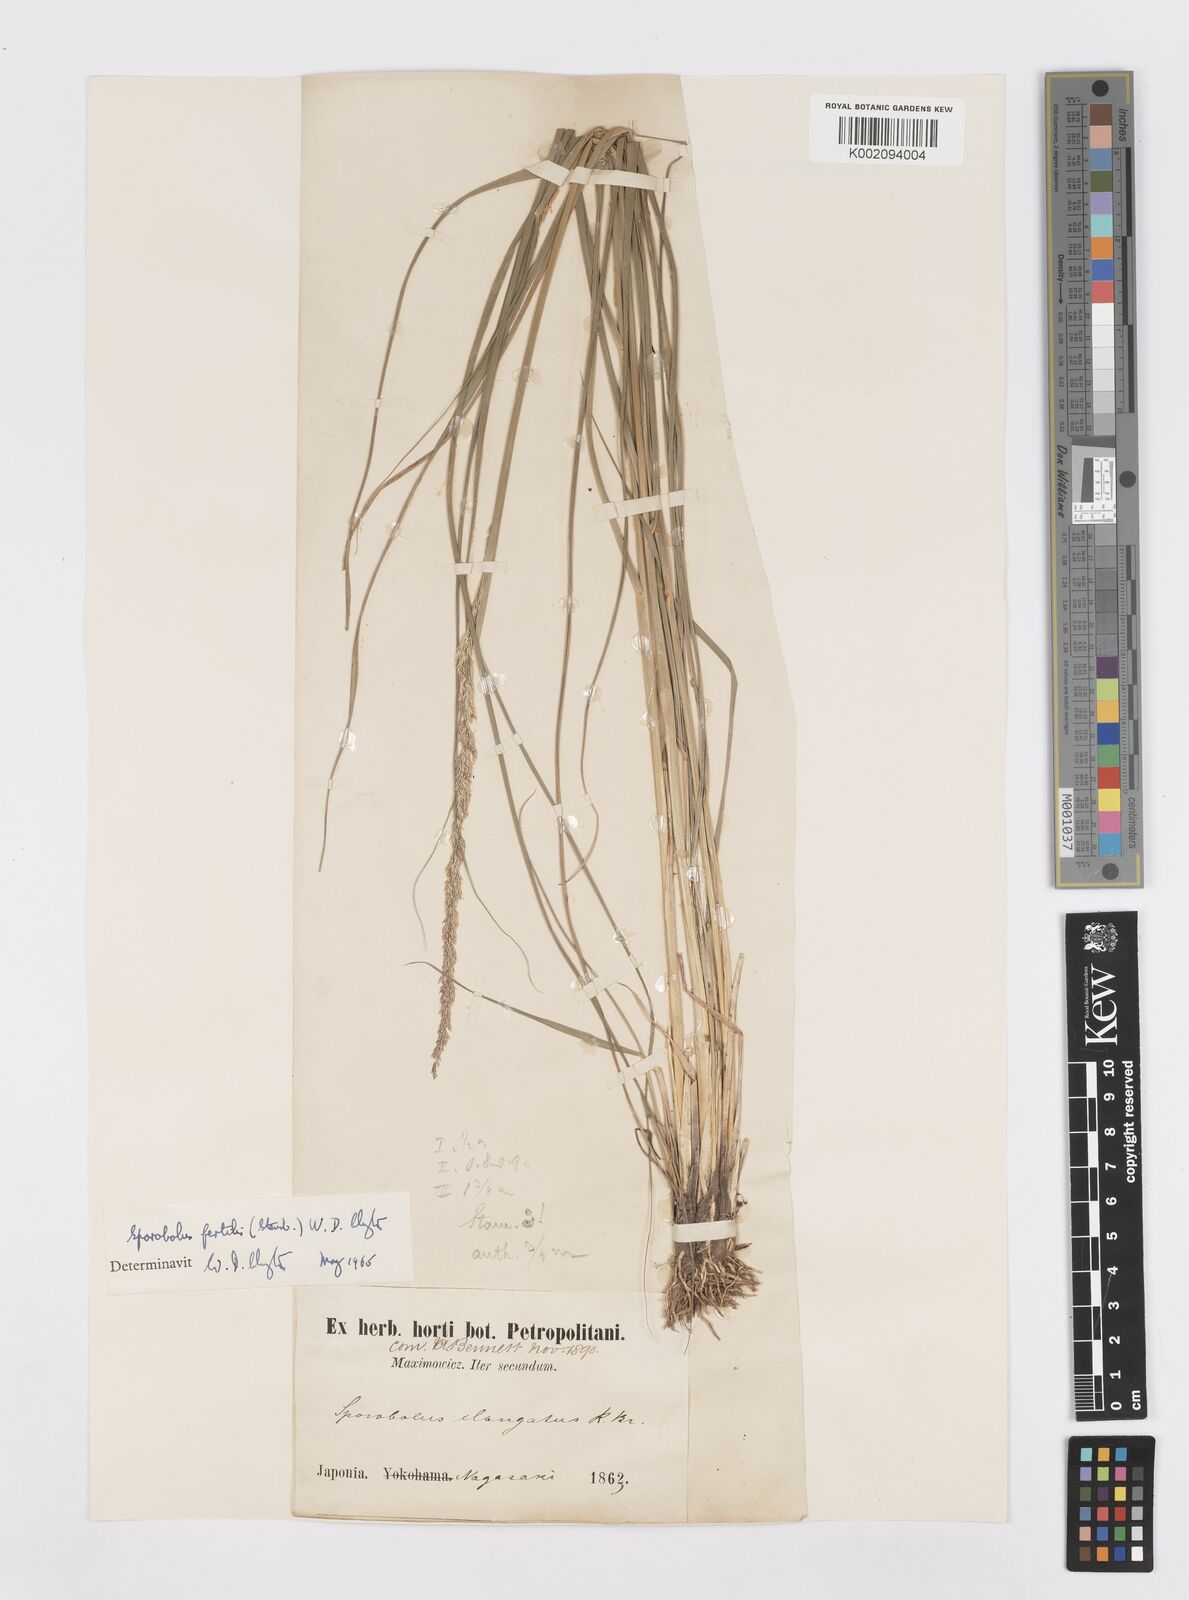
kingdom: Plantae
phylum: Tracheophyta
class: Liliopsida
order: Poales
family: Poaceae
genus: Sporobolus
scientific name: Sporobolus fertilis
